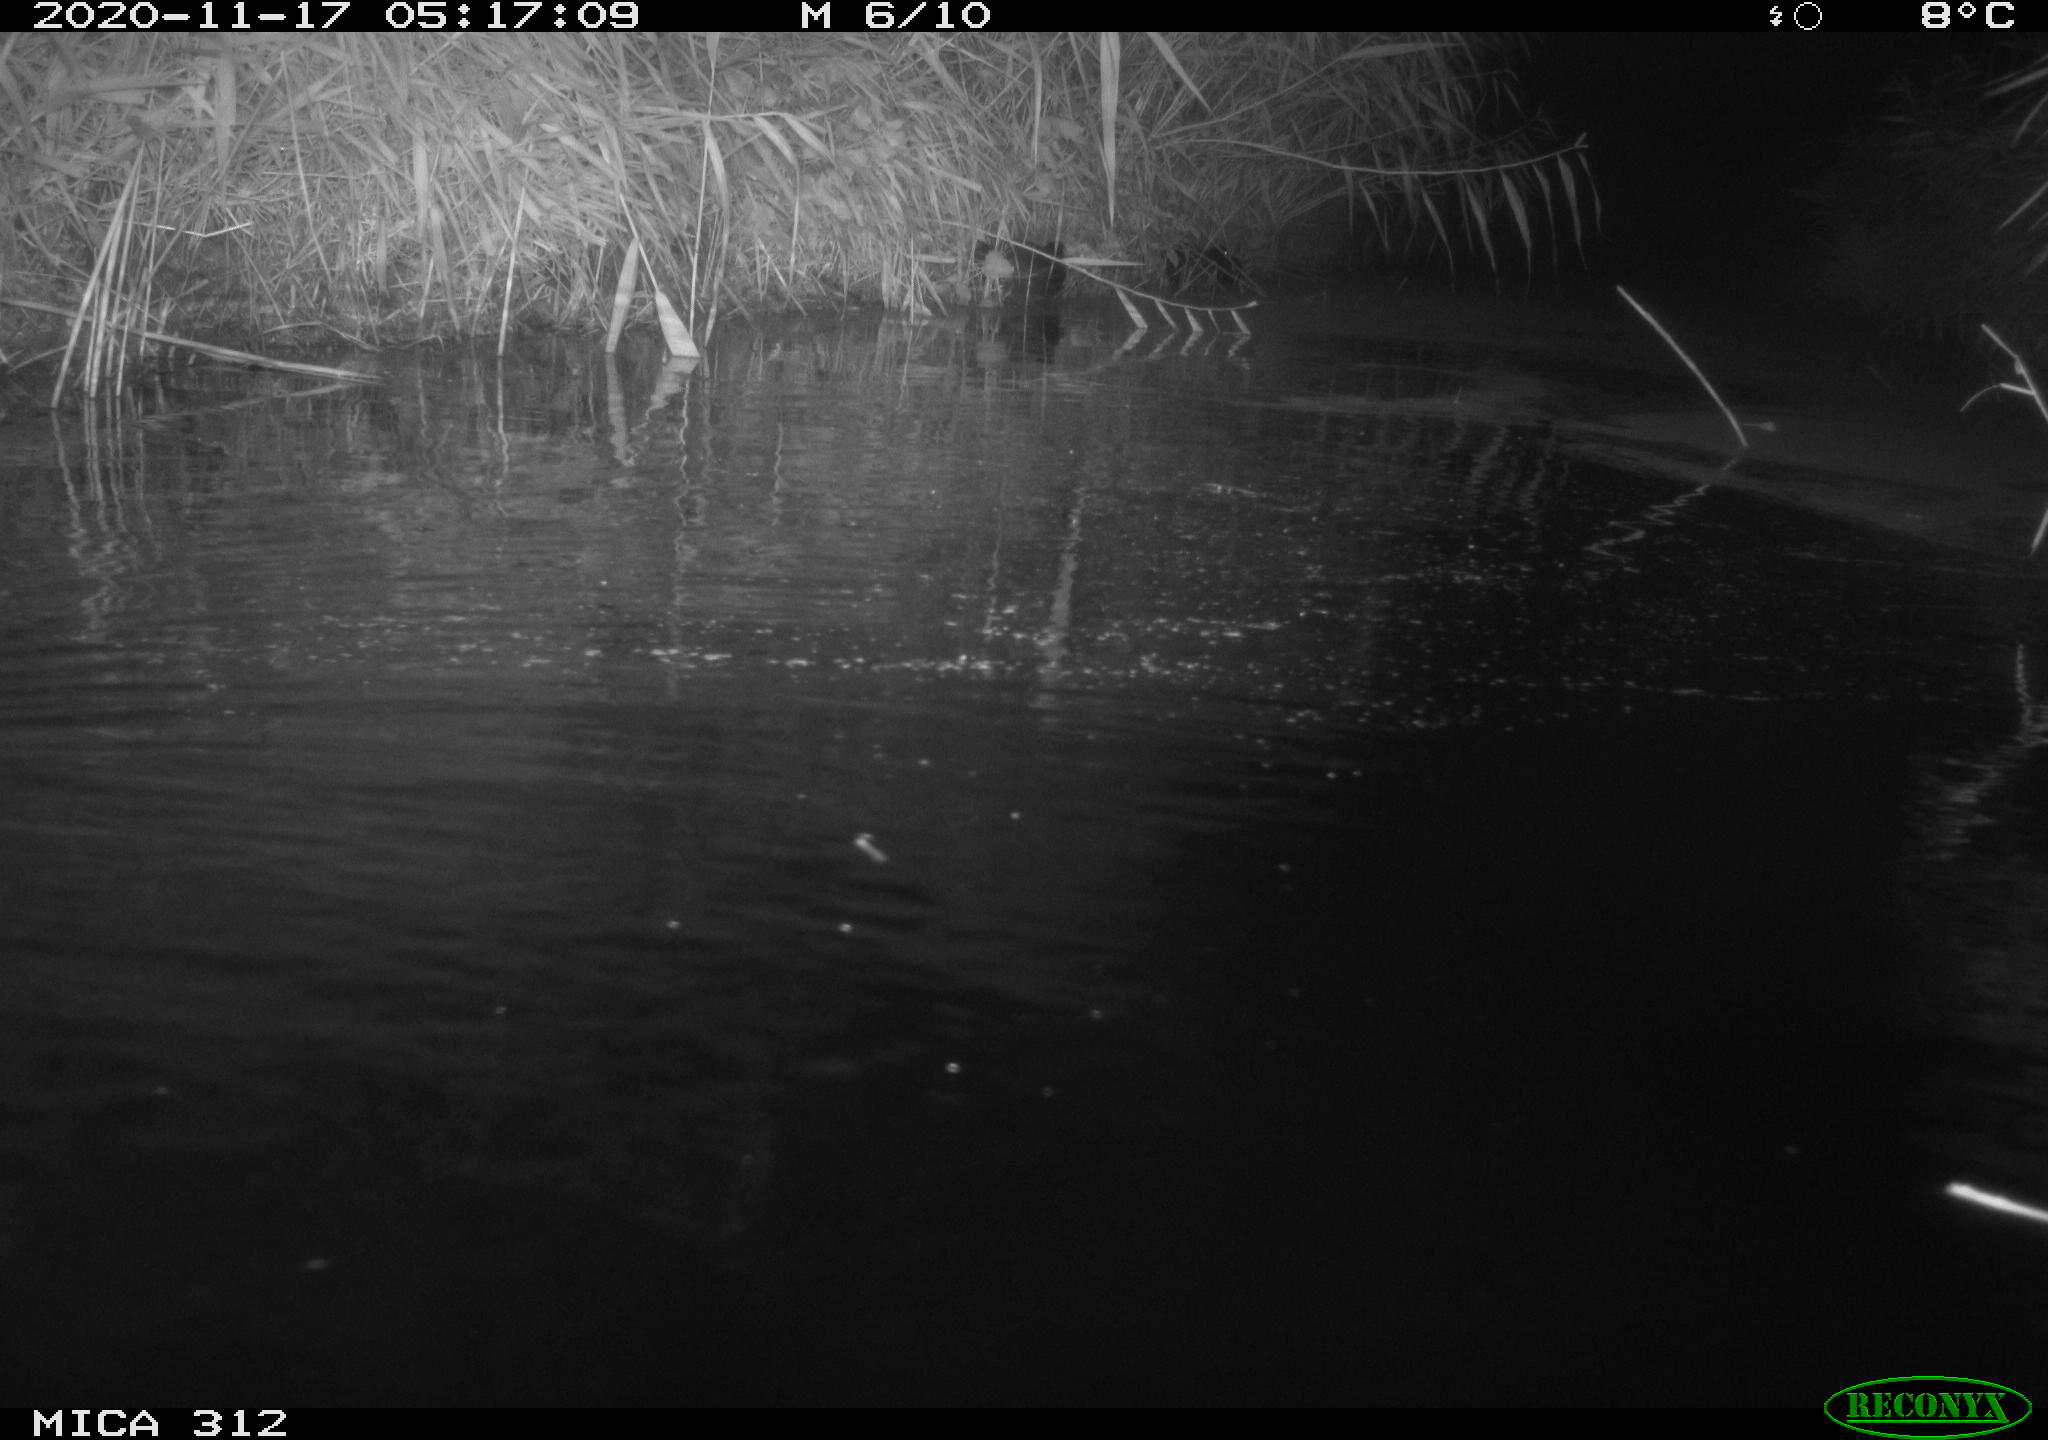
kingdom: Animalia
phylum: Chordata
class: Mammalia
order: Rodentia
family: Muridae
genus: Rattus
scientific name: Rattus norvegicus
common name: Brown rat
